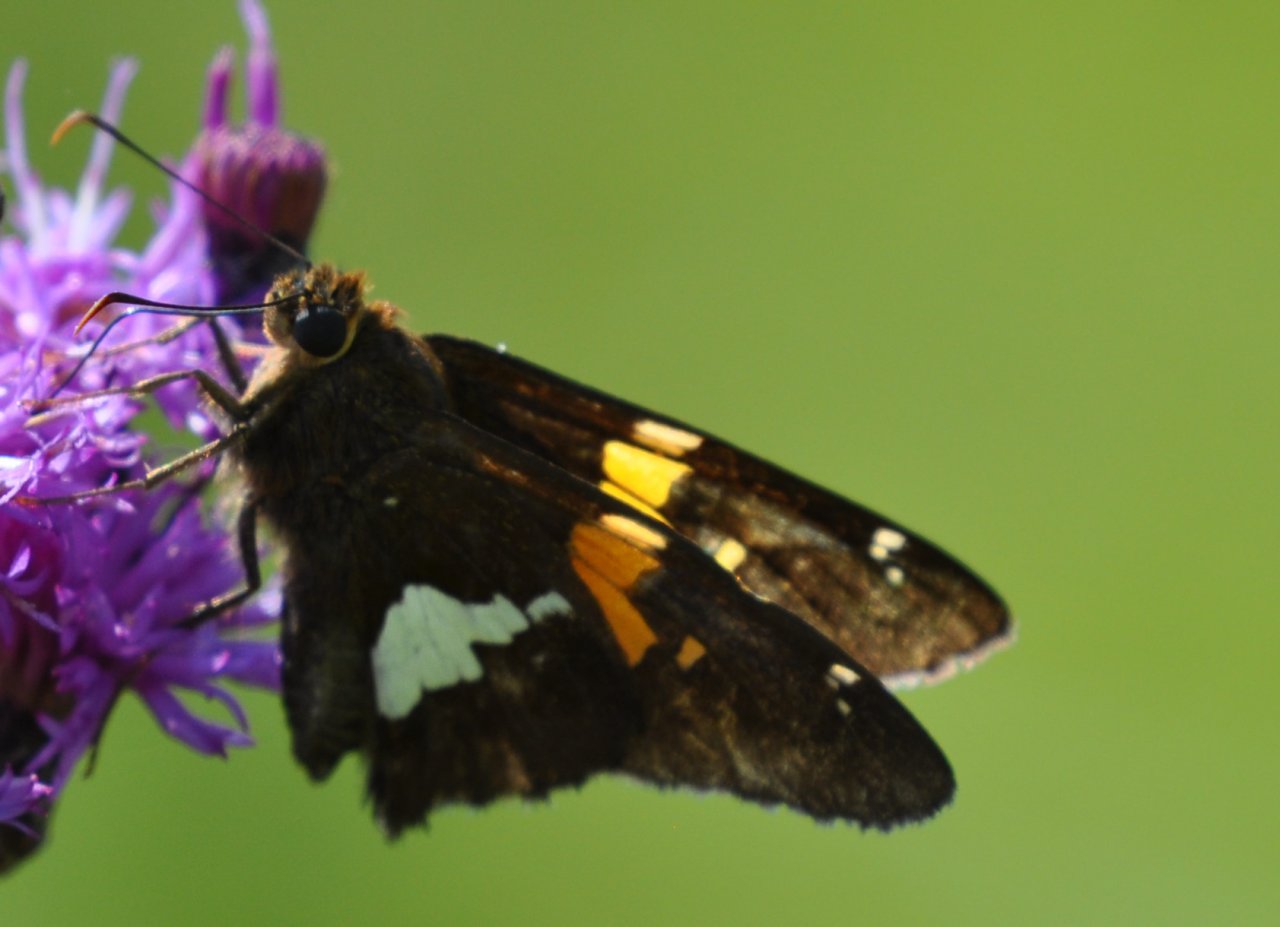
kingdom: Animalia
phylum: Arthropoda
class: Insecta
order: Lepidoptera
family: Hesperiidae
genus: Epargyreus
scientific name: Epargyreus clarus
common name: Silver-spotted Skipper
